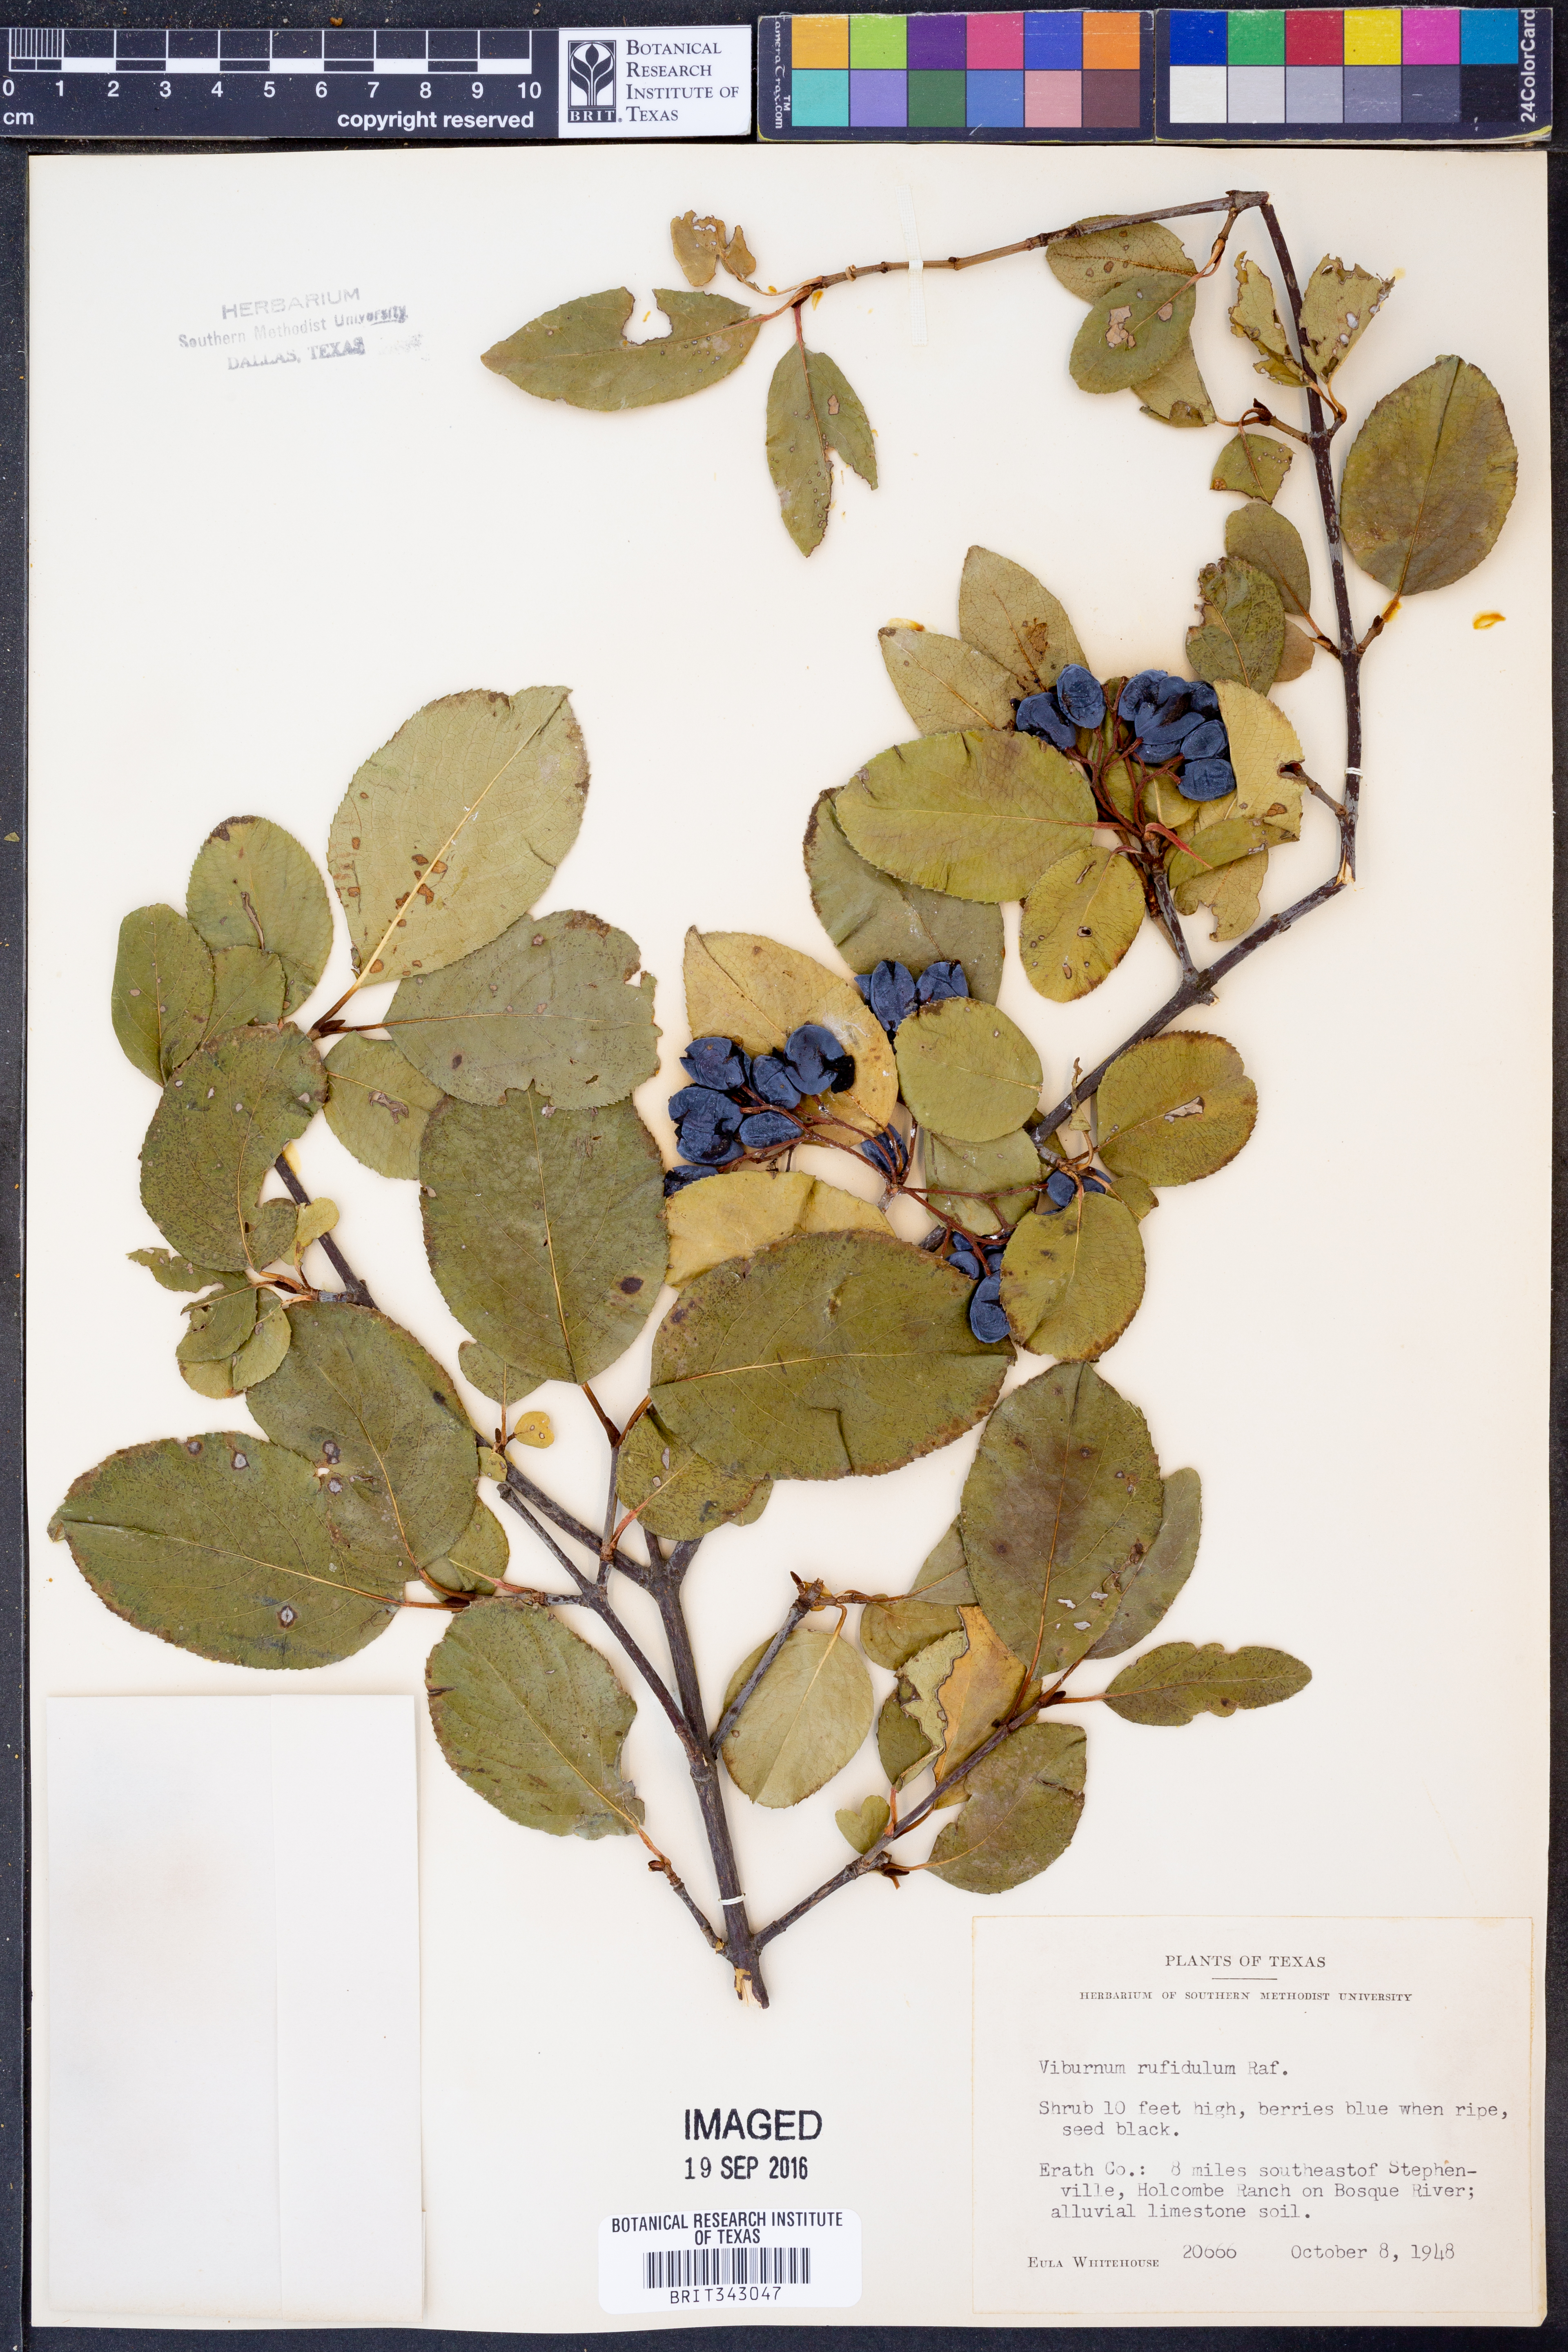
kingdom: Plantae
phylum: Tracheophyta
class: Magnoliopsida
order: Dipsacales
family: Viburnaceae
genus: Viburnum
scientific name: Viburnum rufidulum
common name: Blue haw
